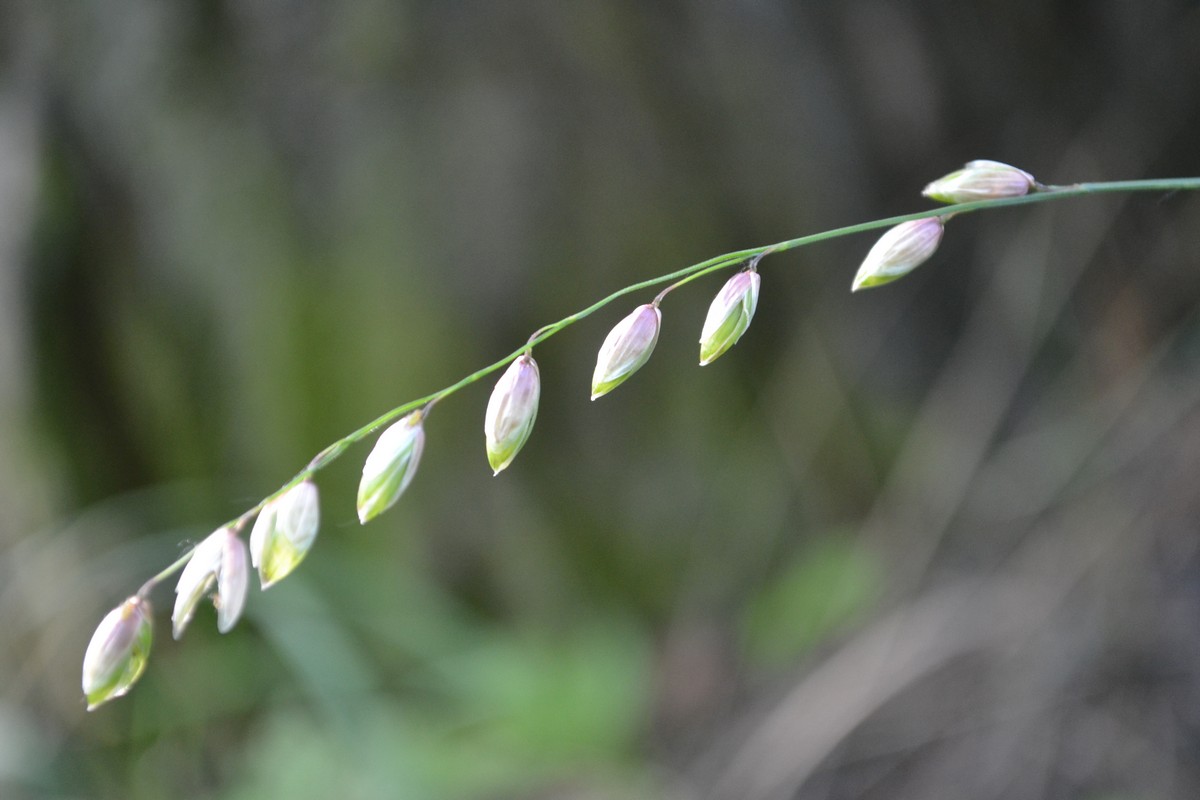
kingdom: Plantae
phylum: Tracheophyta
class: Liliopsida
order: Poales
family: Poaceae
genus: Melica
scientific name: Melica nutans
